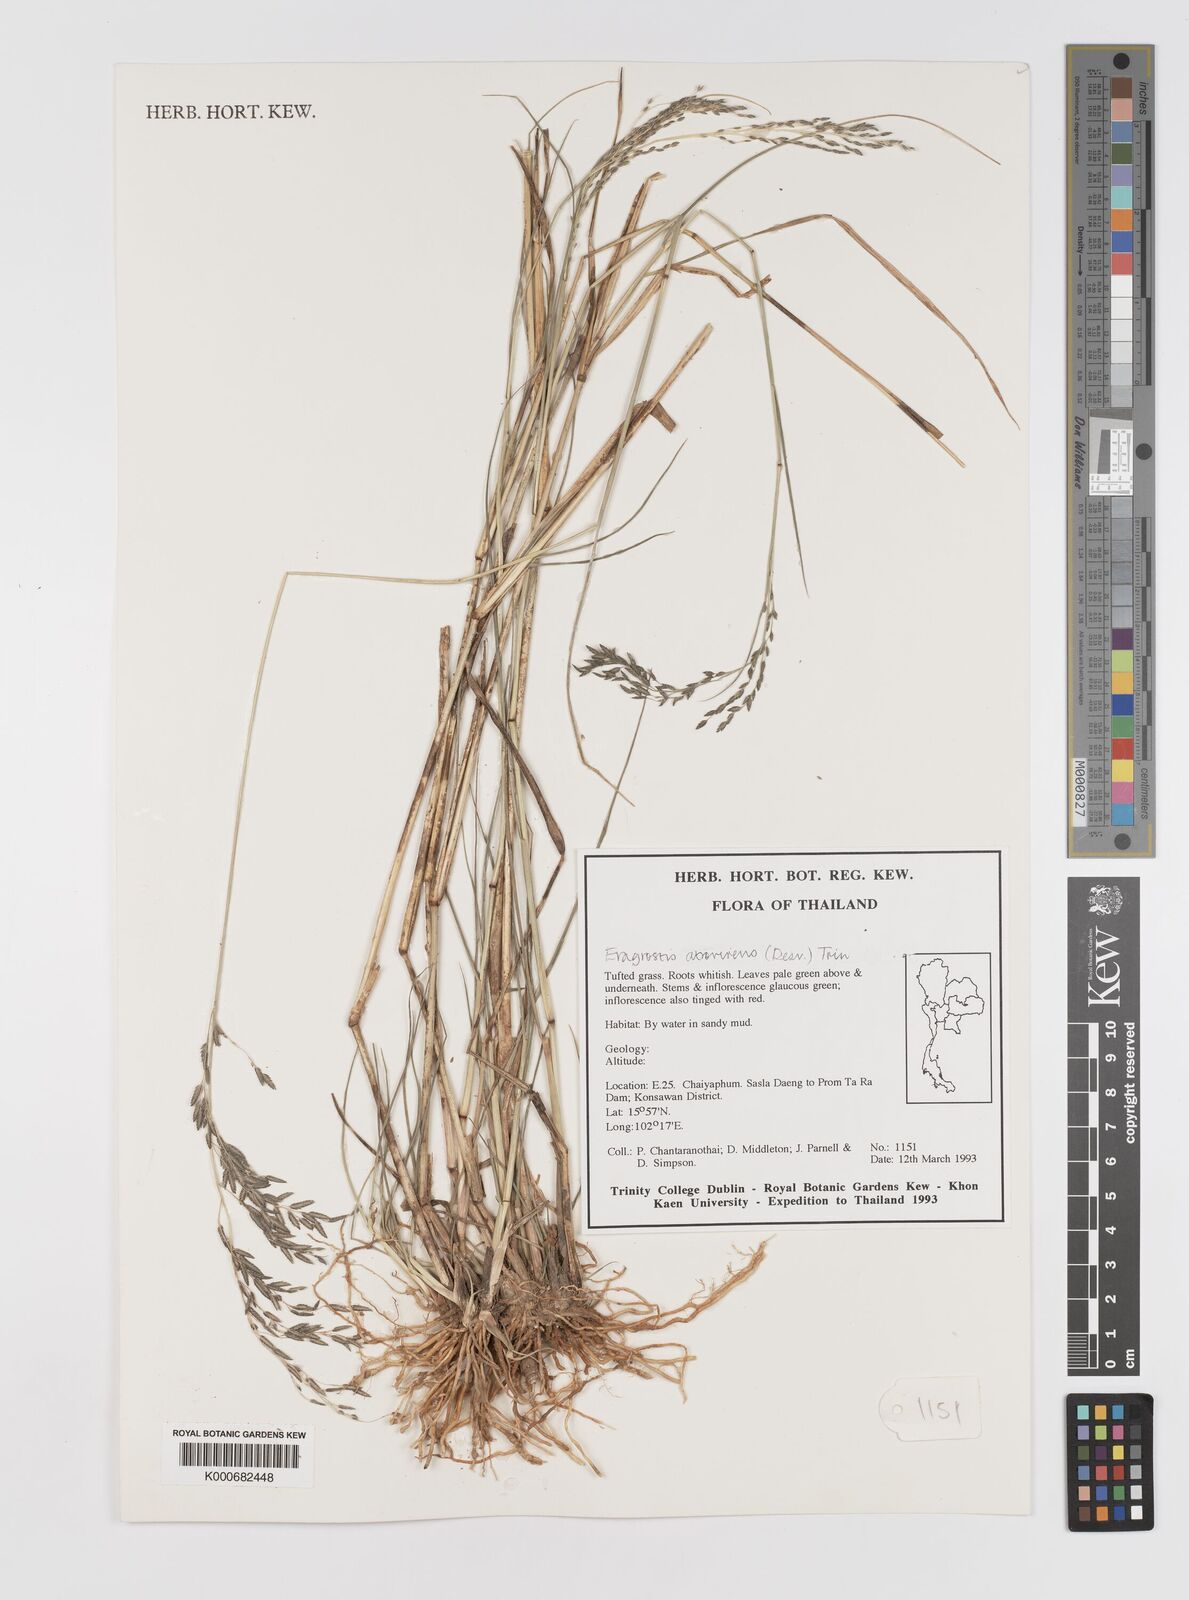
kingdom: Plantae
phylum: Tracheophyta
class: Liliopsida
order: Poales
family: Poaceae
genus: Eragrostis
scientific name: Eragrostis
